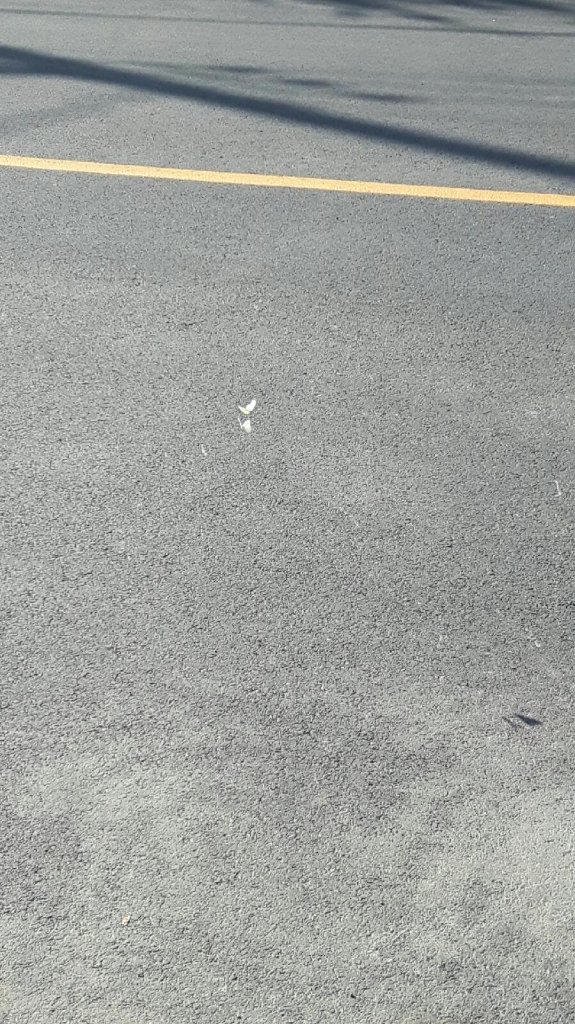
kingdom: Animalia
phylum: Arthropoda
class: Insecta
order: Lepidoptera
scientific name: Lepidoptera
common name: Butterflies
